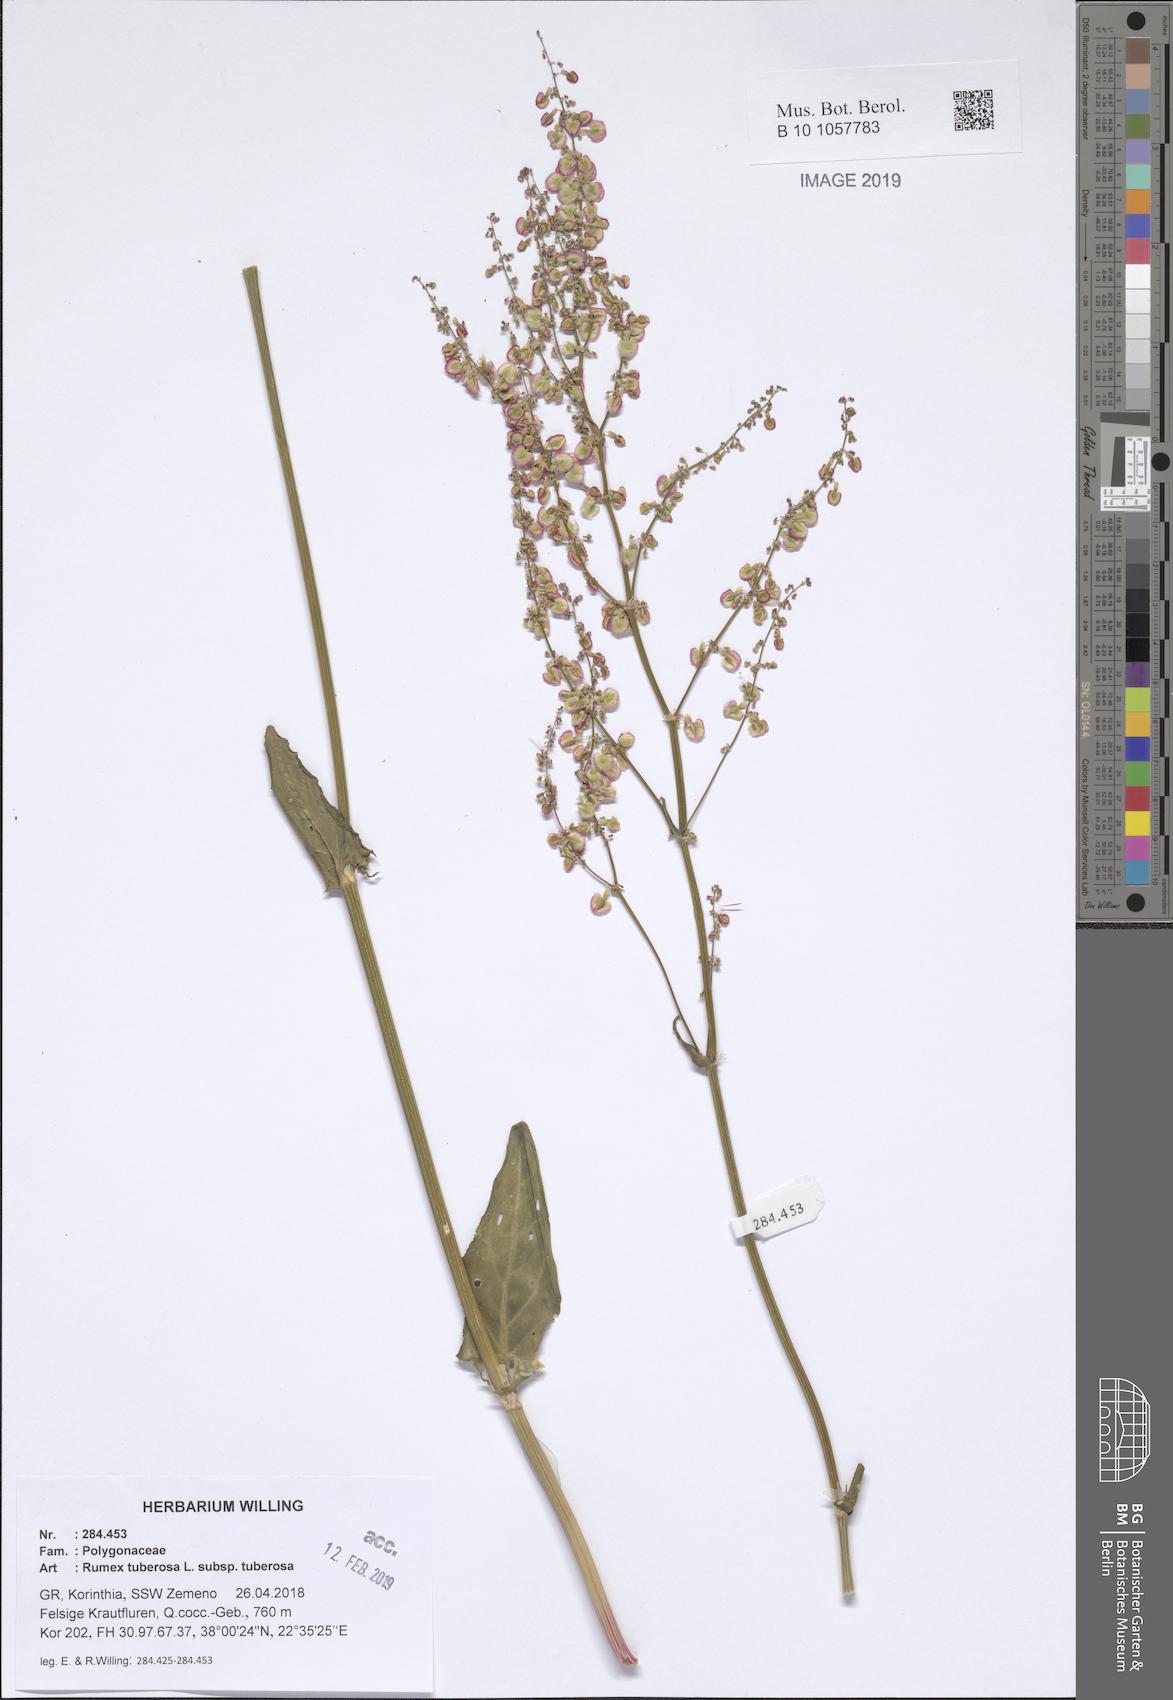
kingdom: Plantae
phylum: Tracheophyta
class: Magnoliopsida
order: Caryophyllales
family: Polygonaceae
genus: Rumex
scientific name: Rumex tuberosus
